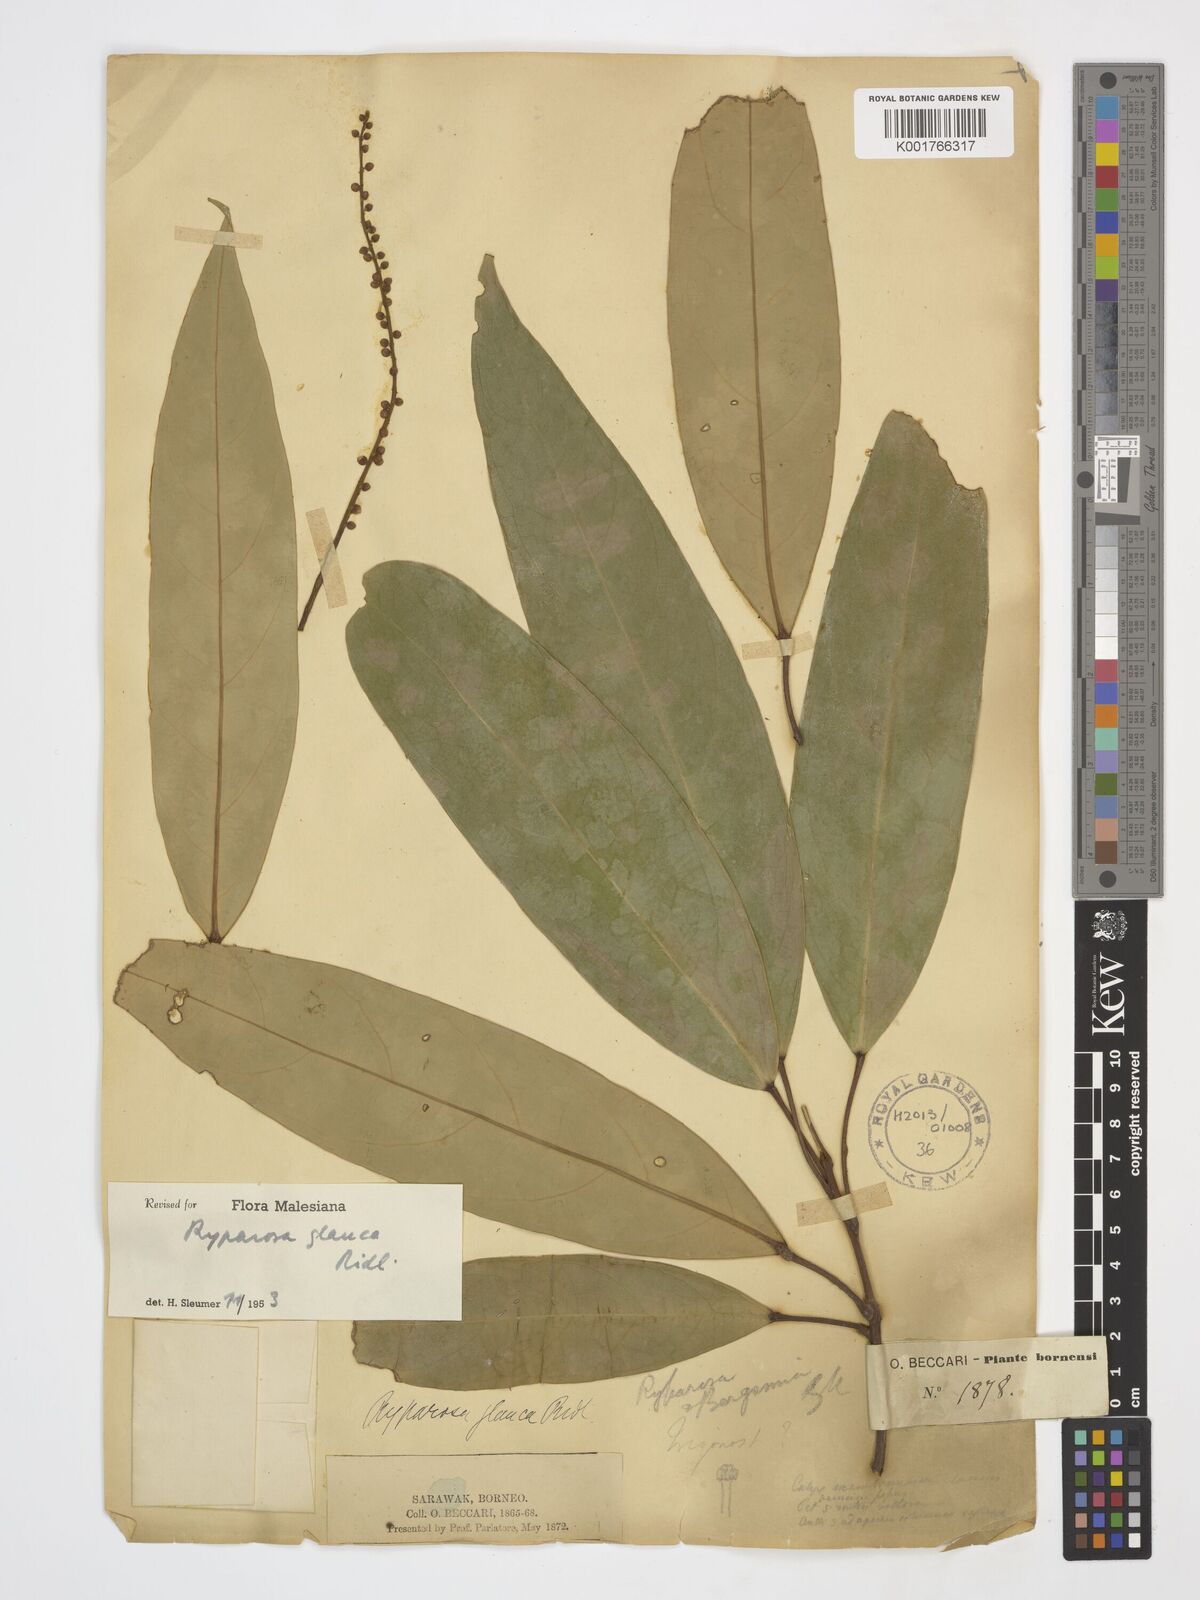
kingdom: Plantae
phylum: Tracheophyta
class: Magnoliopsida
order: Malpighiales
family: Achariaceae
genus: Ryparosa
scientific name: Ryparosa glauca
